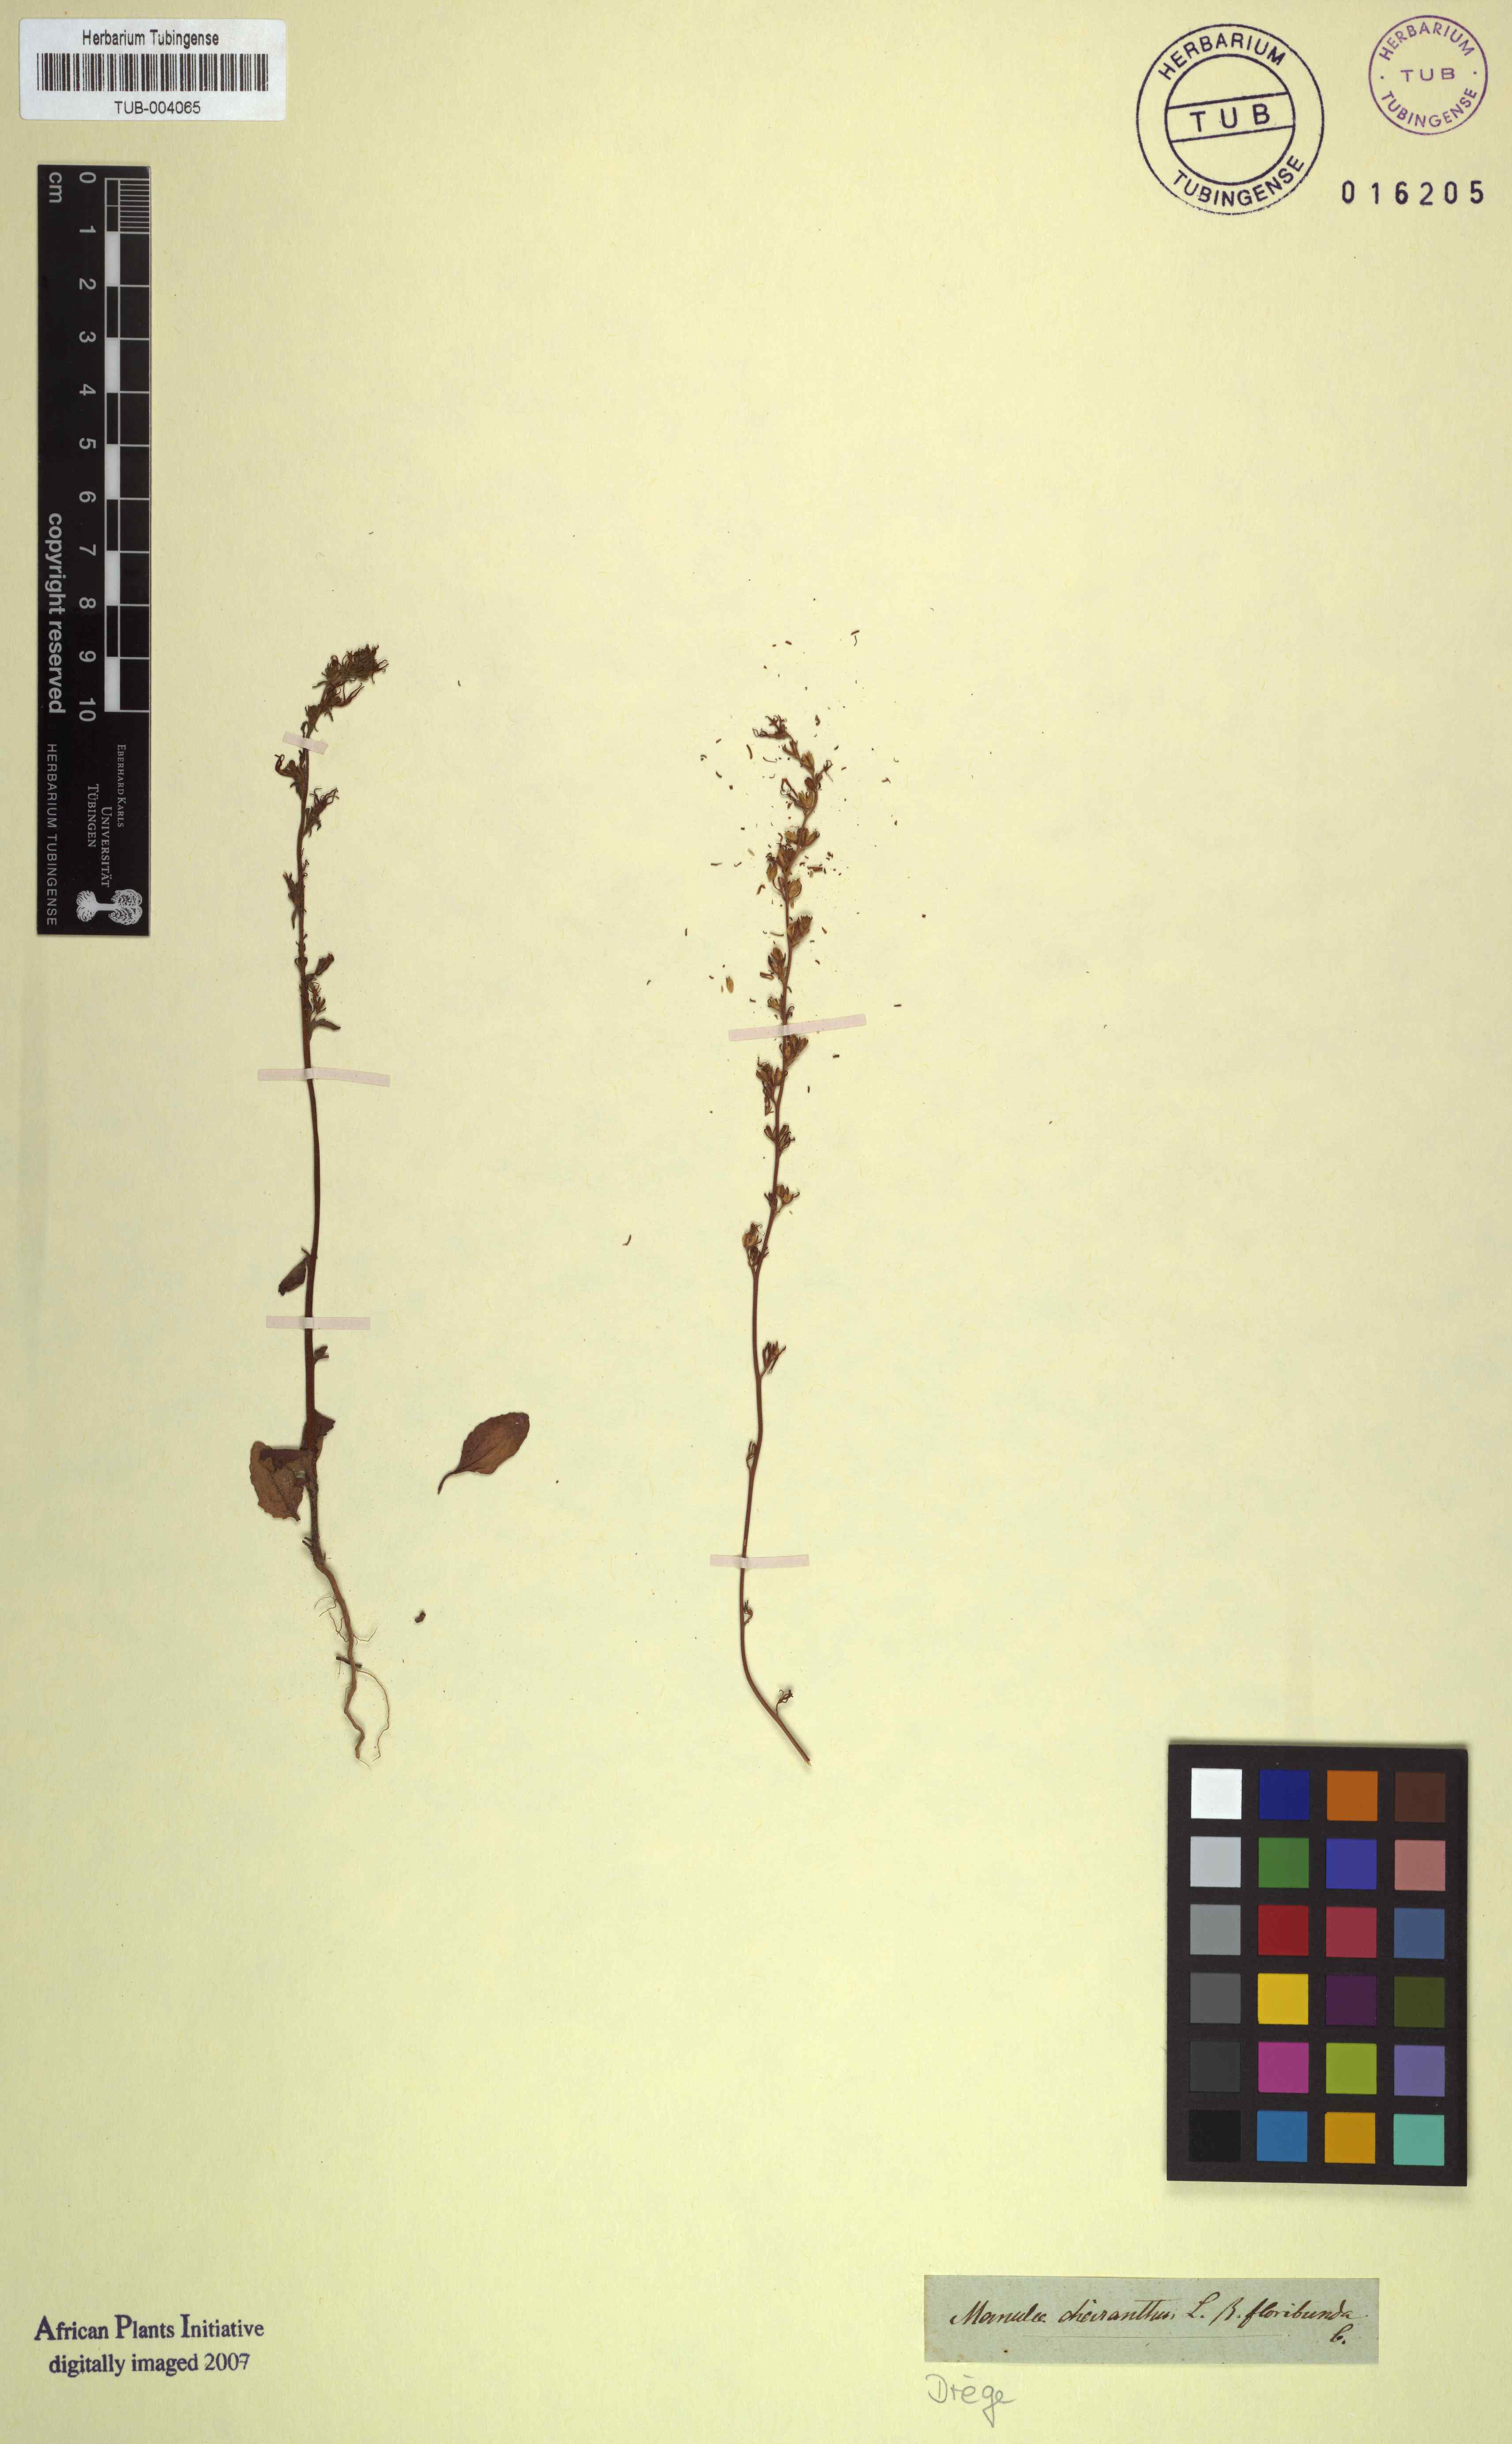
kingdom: Plantae
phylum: Tracheophyta
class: Magnoliopsida
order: Lamiales
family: Scrophulariaceae
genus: Manulea
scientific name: Manulea cheiranthus
